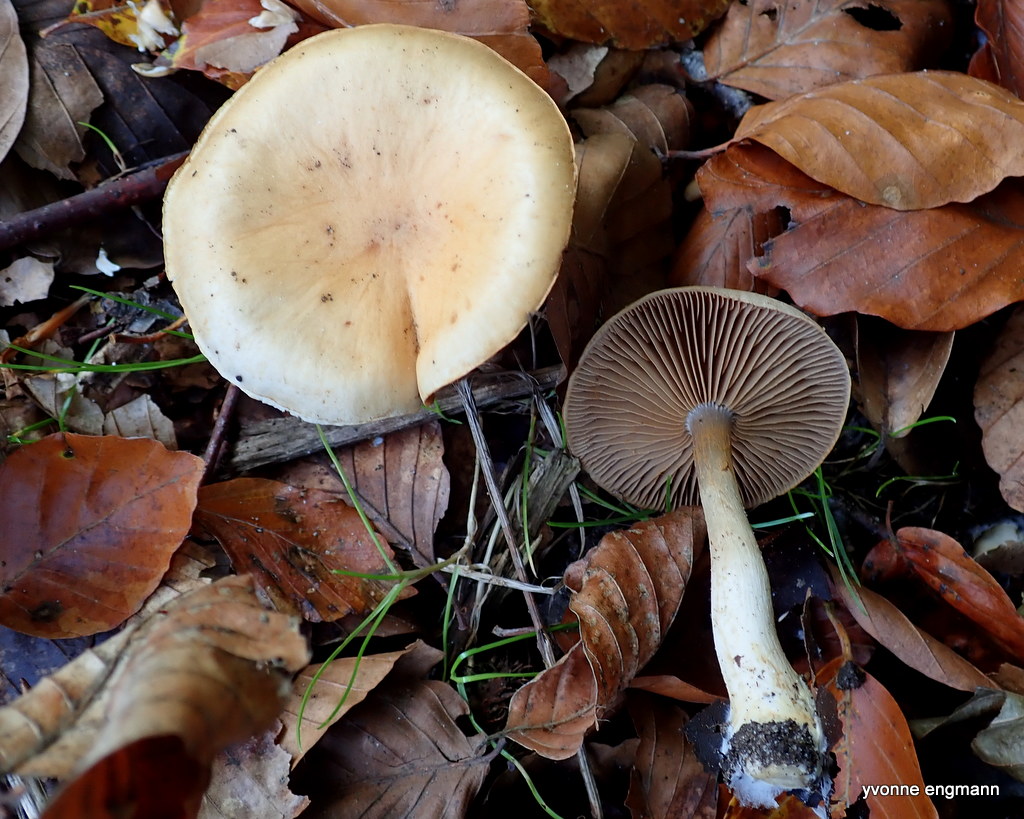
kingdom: Fungi
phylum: Basidiomycota
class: Agaricomycetes
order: Agaricales
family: Cortinariaceae
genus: Cortinarius
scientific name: Cortinarius
